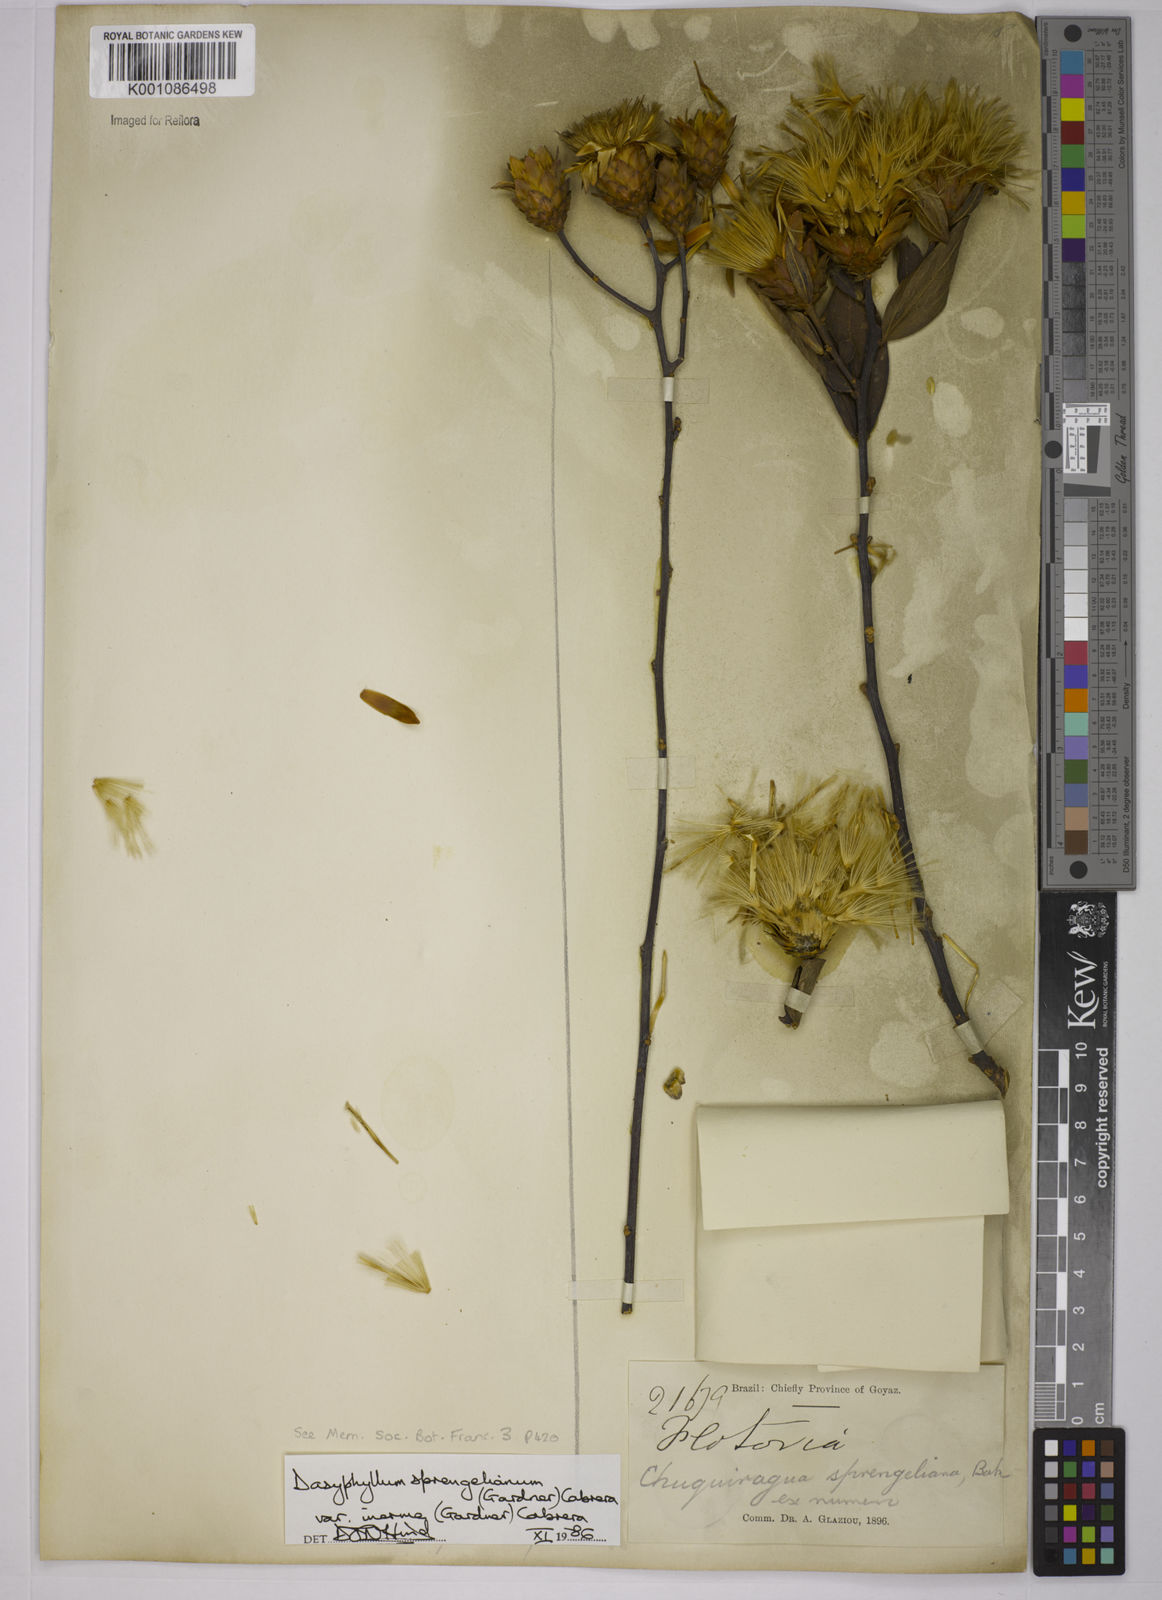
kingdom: Plantae
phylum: Tracheophyta
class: Magnoliopsida
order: Asterales
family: Asteraceae
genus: Dasyphyllum
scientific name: Dasyphyllum sprengelianum
